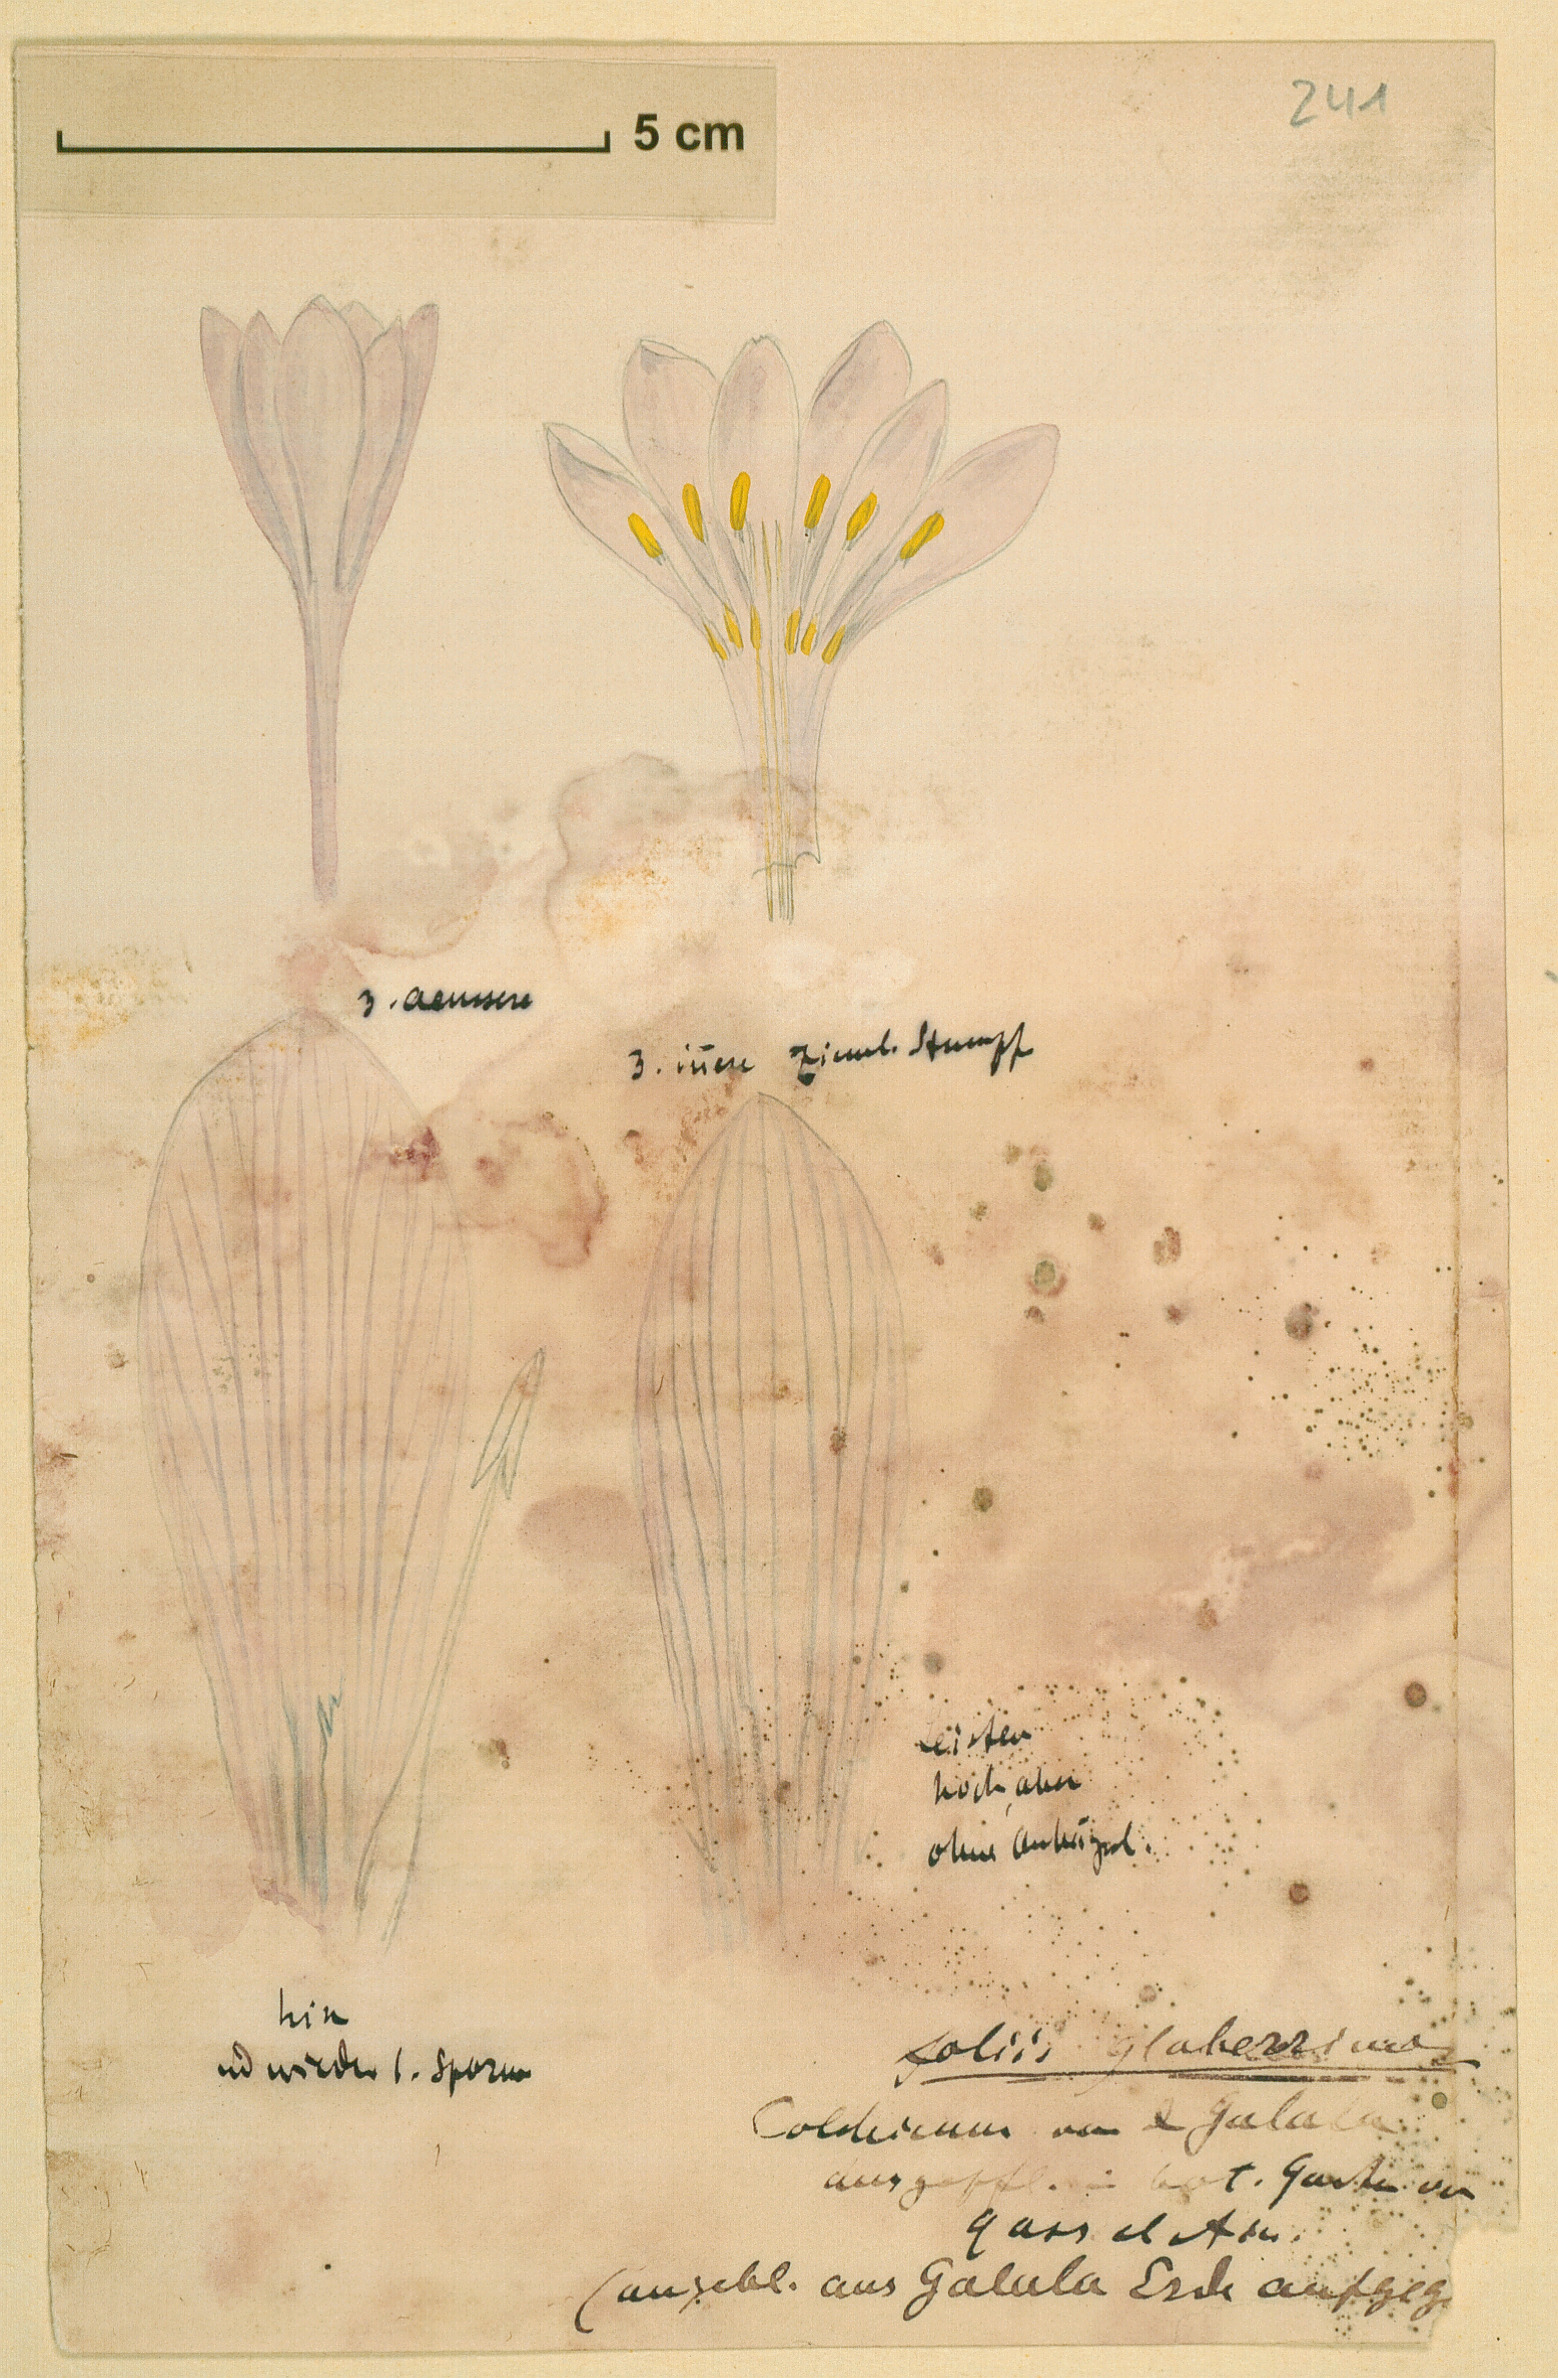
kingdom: Plantae
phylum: Tracheophyta
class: Liliopsida
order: Liliales
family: Colchicaceae
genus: Colchicum
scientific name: Colchicum
